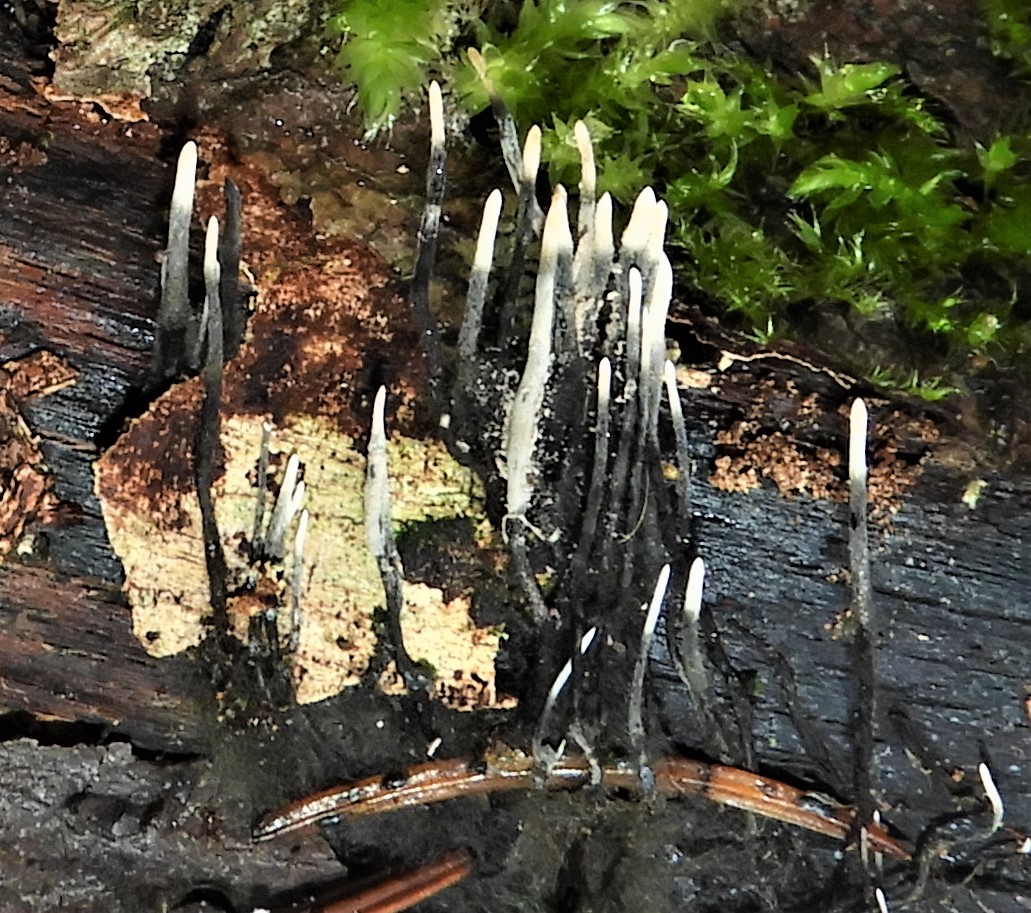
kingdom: Fungi
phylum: Ascomycota
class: Sordariomycetes
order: Xylariales
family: Xylariaceae
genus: Xylaria
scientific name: Xylaria hypoxylon
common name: grenet stødsvamp
